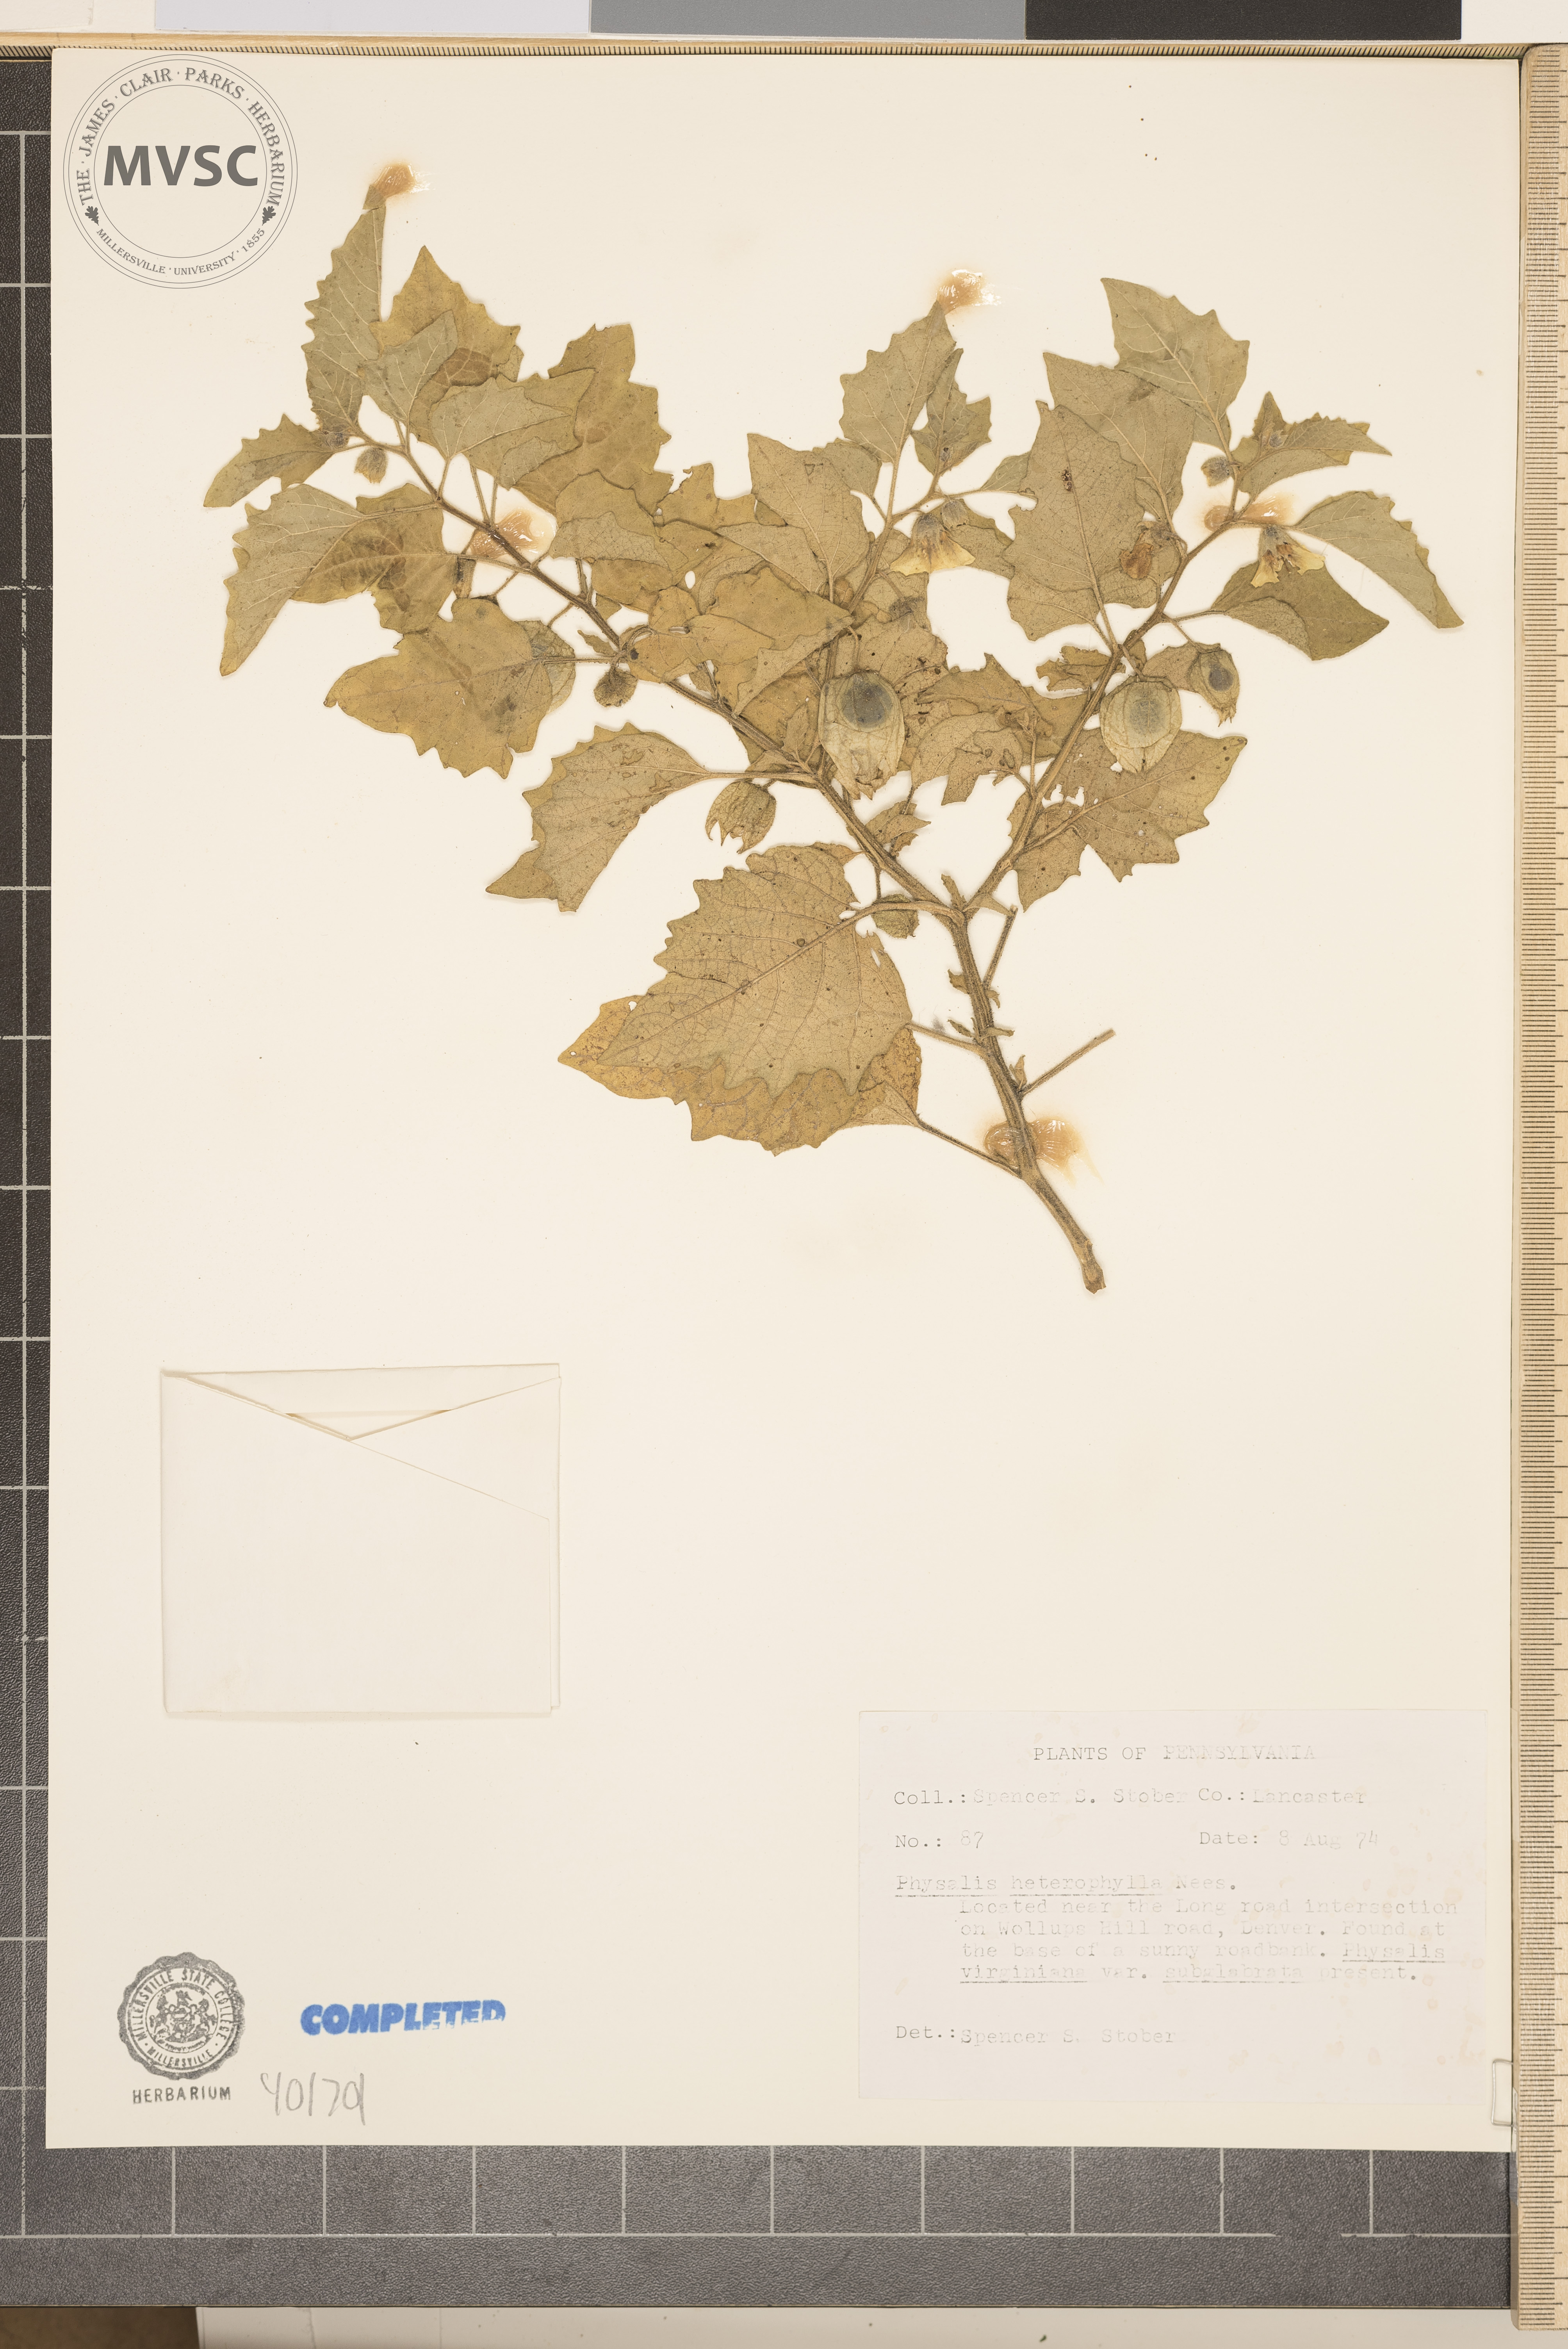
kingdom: Plantae
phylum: Tracheophyta
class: Magnoliopsida
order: Solanales
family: Solanaceae
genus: Physalis
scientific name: Physalis heterophylla
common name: Clammy ground-cherry
